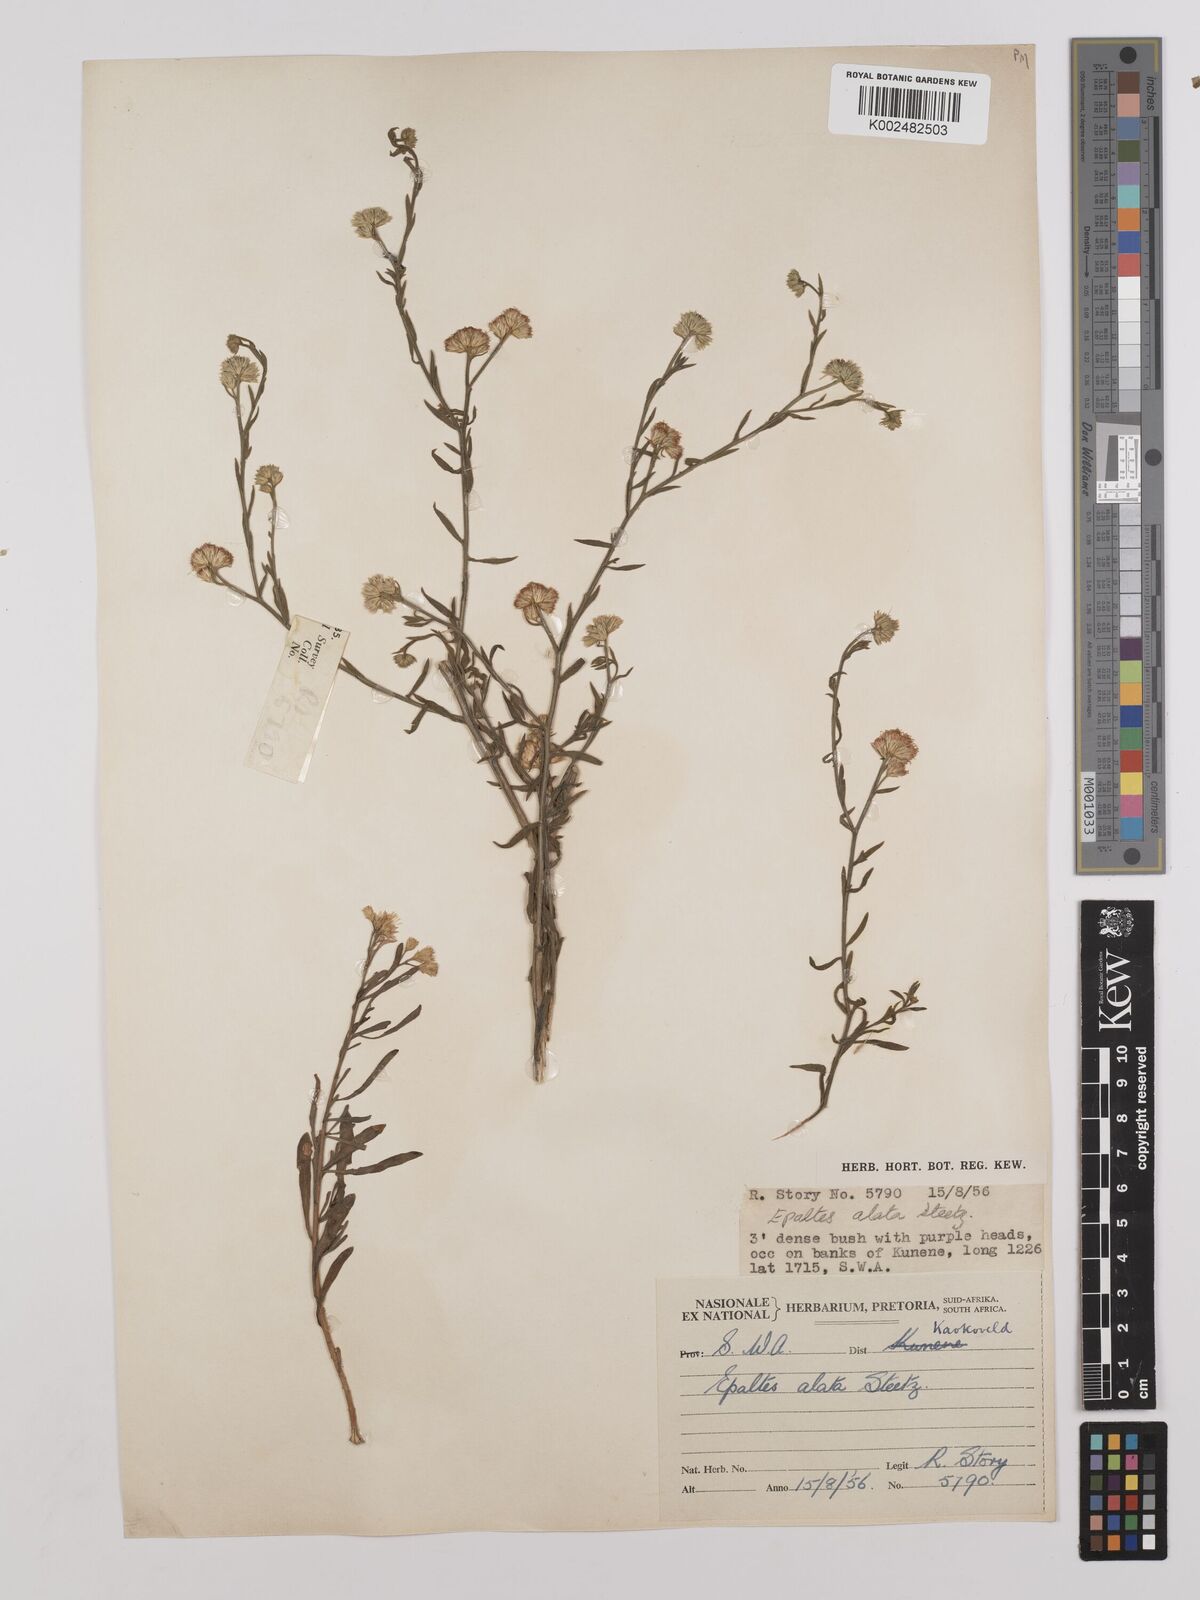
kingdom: Plantae
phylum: Tracheophyta
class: Magnoliopsida
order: Asterales
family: Asteraceae
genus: Litogyne
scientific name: Litogyne gariepina
